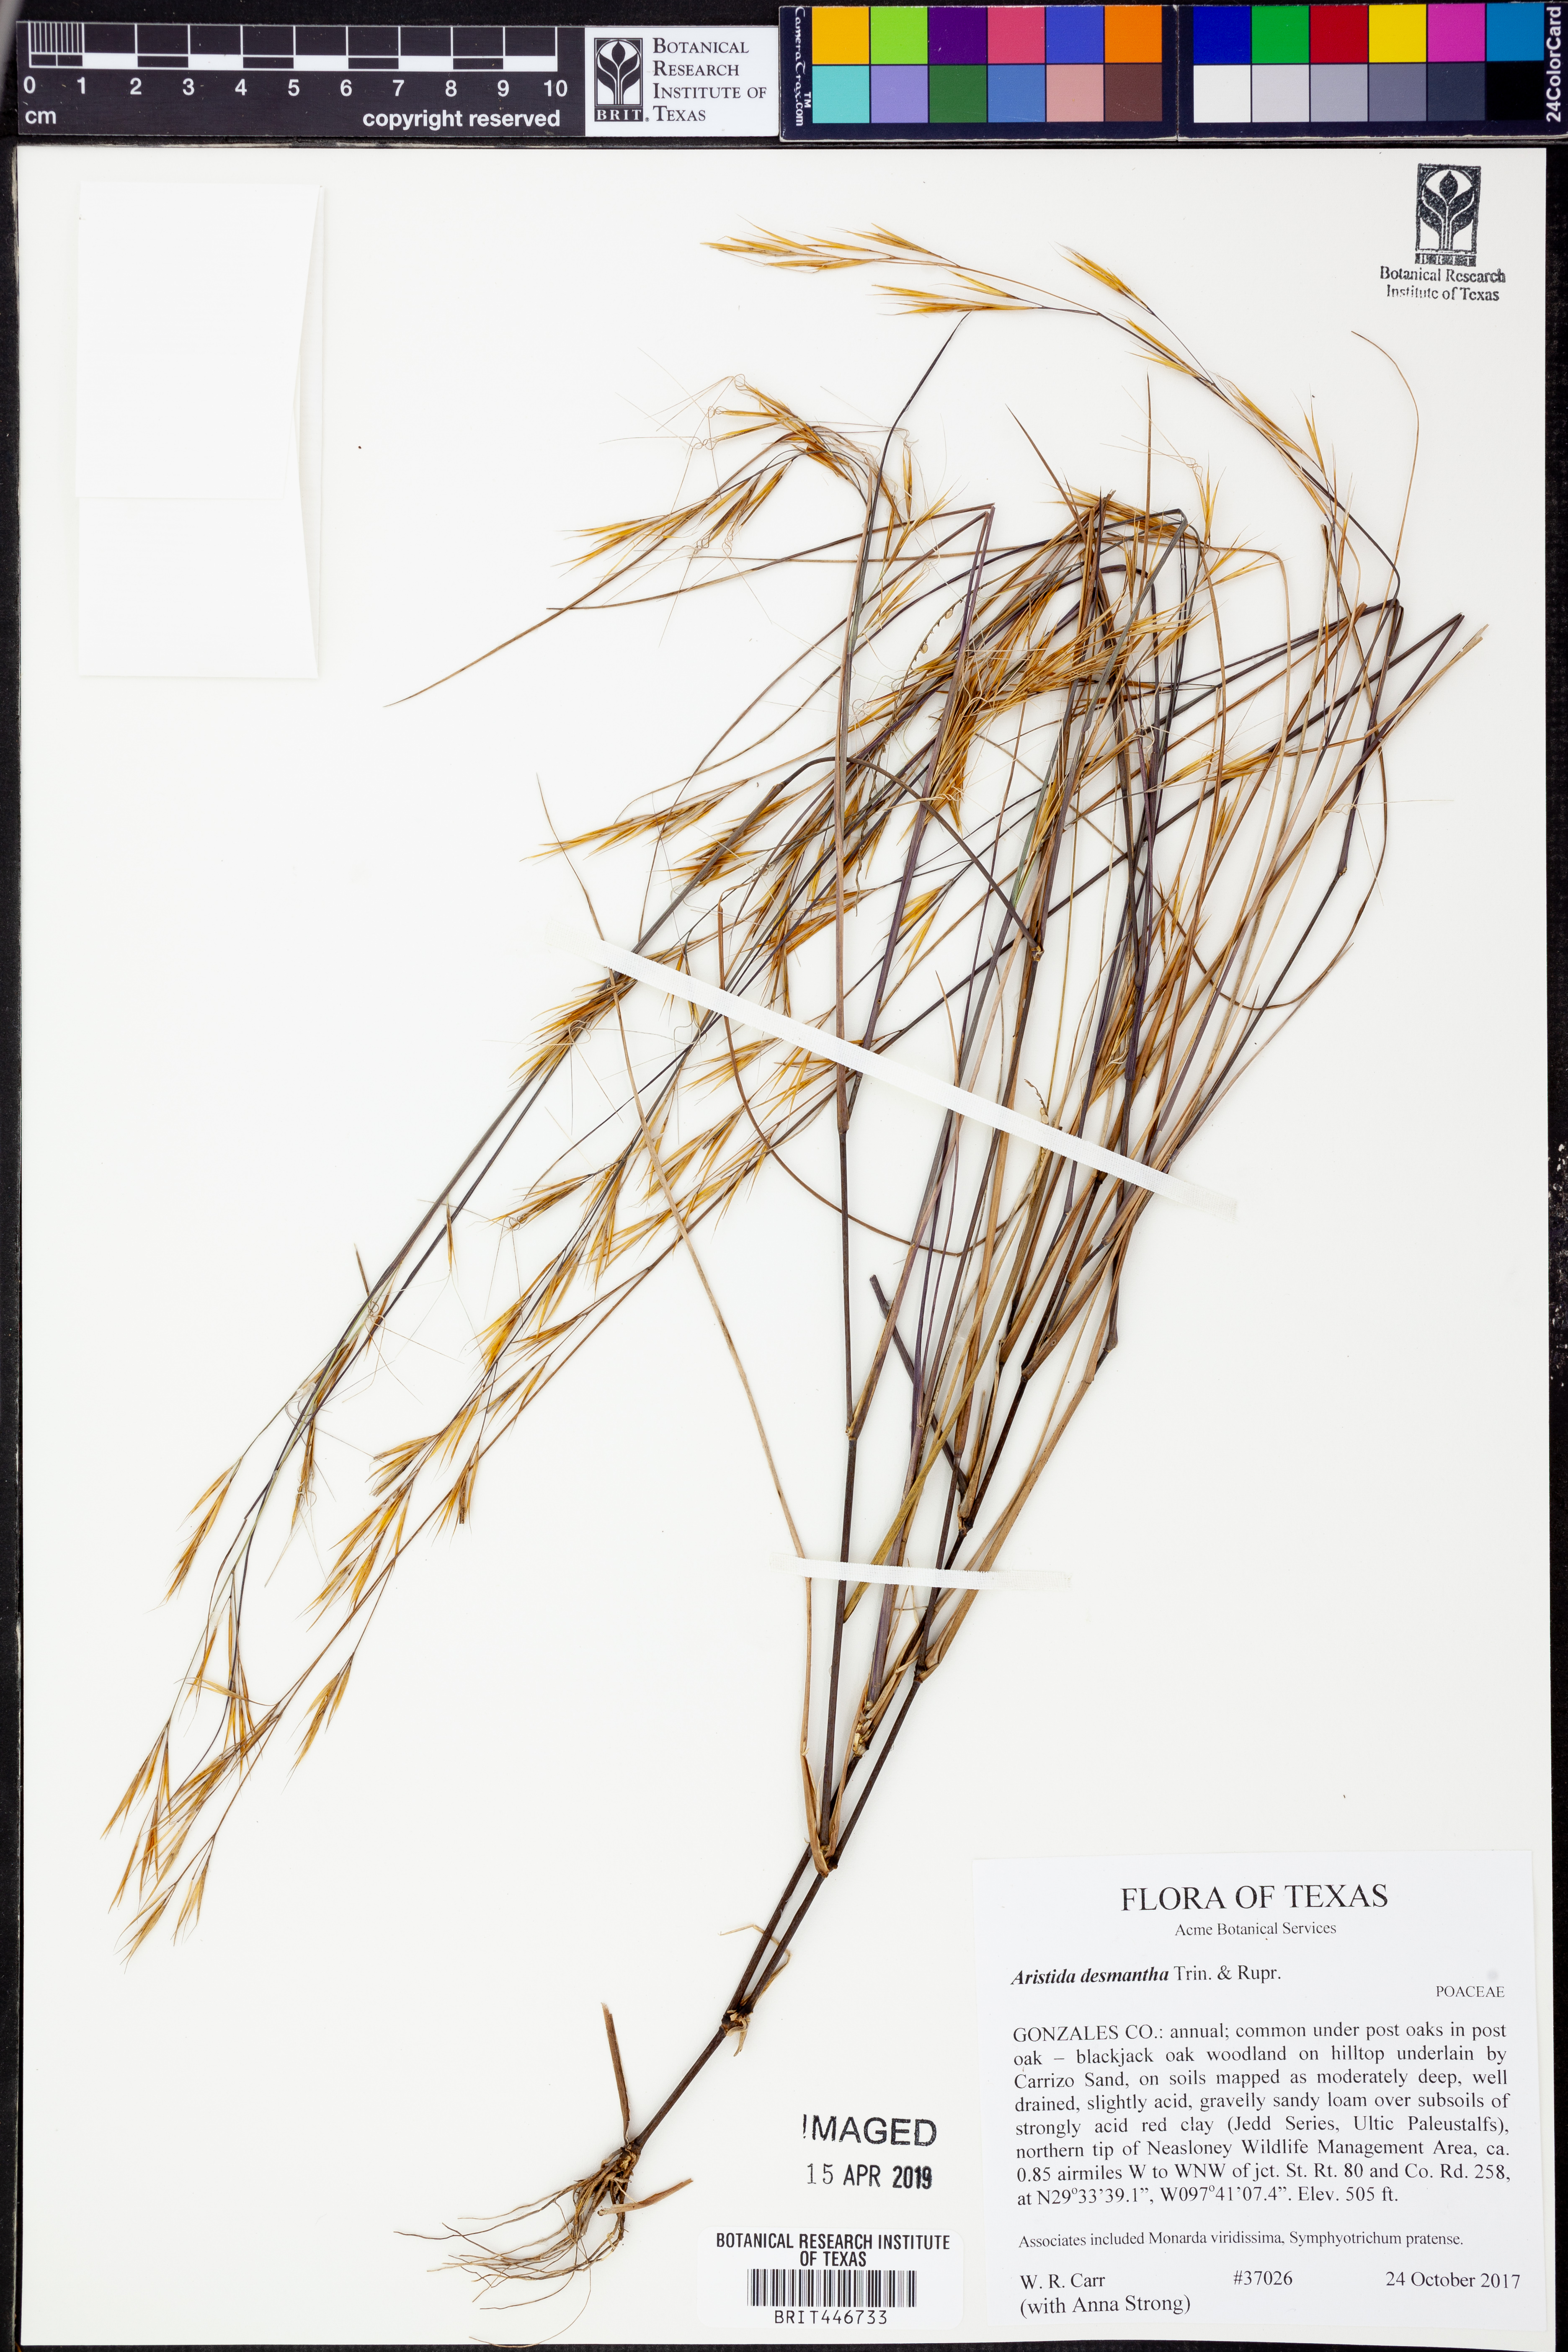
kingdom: Plantae
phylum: Tracheophyta
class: Liliopsida
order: Poales
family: Poaceae
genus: Aristida
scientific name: Aristida desmantha
